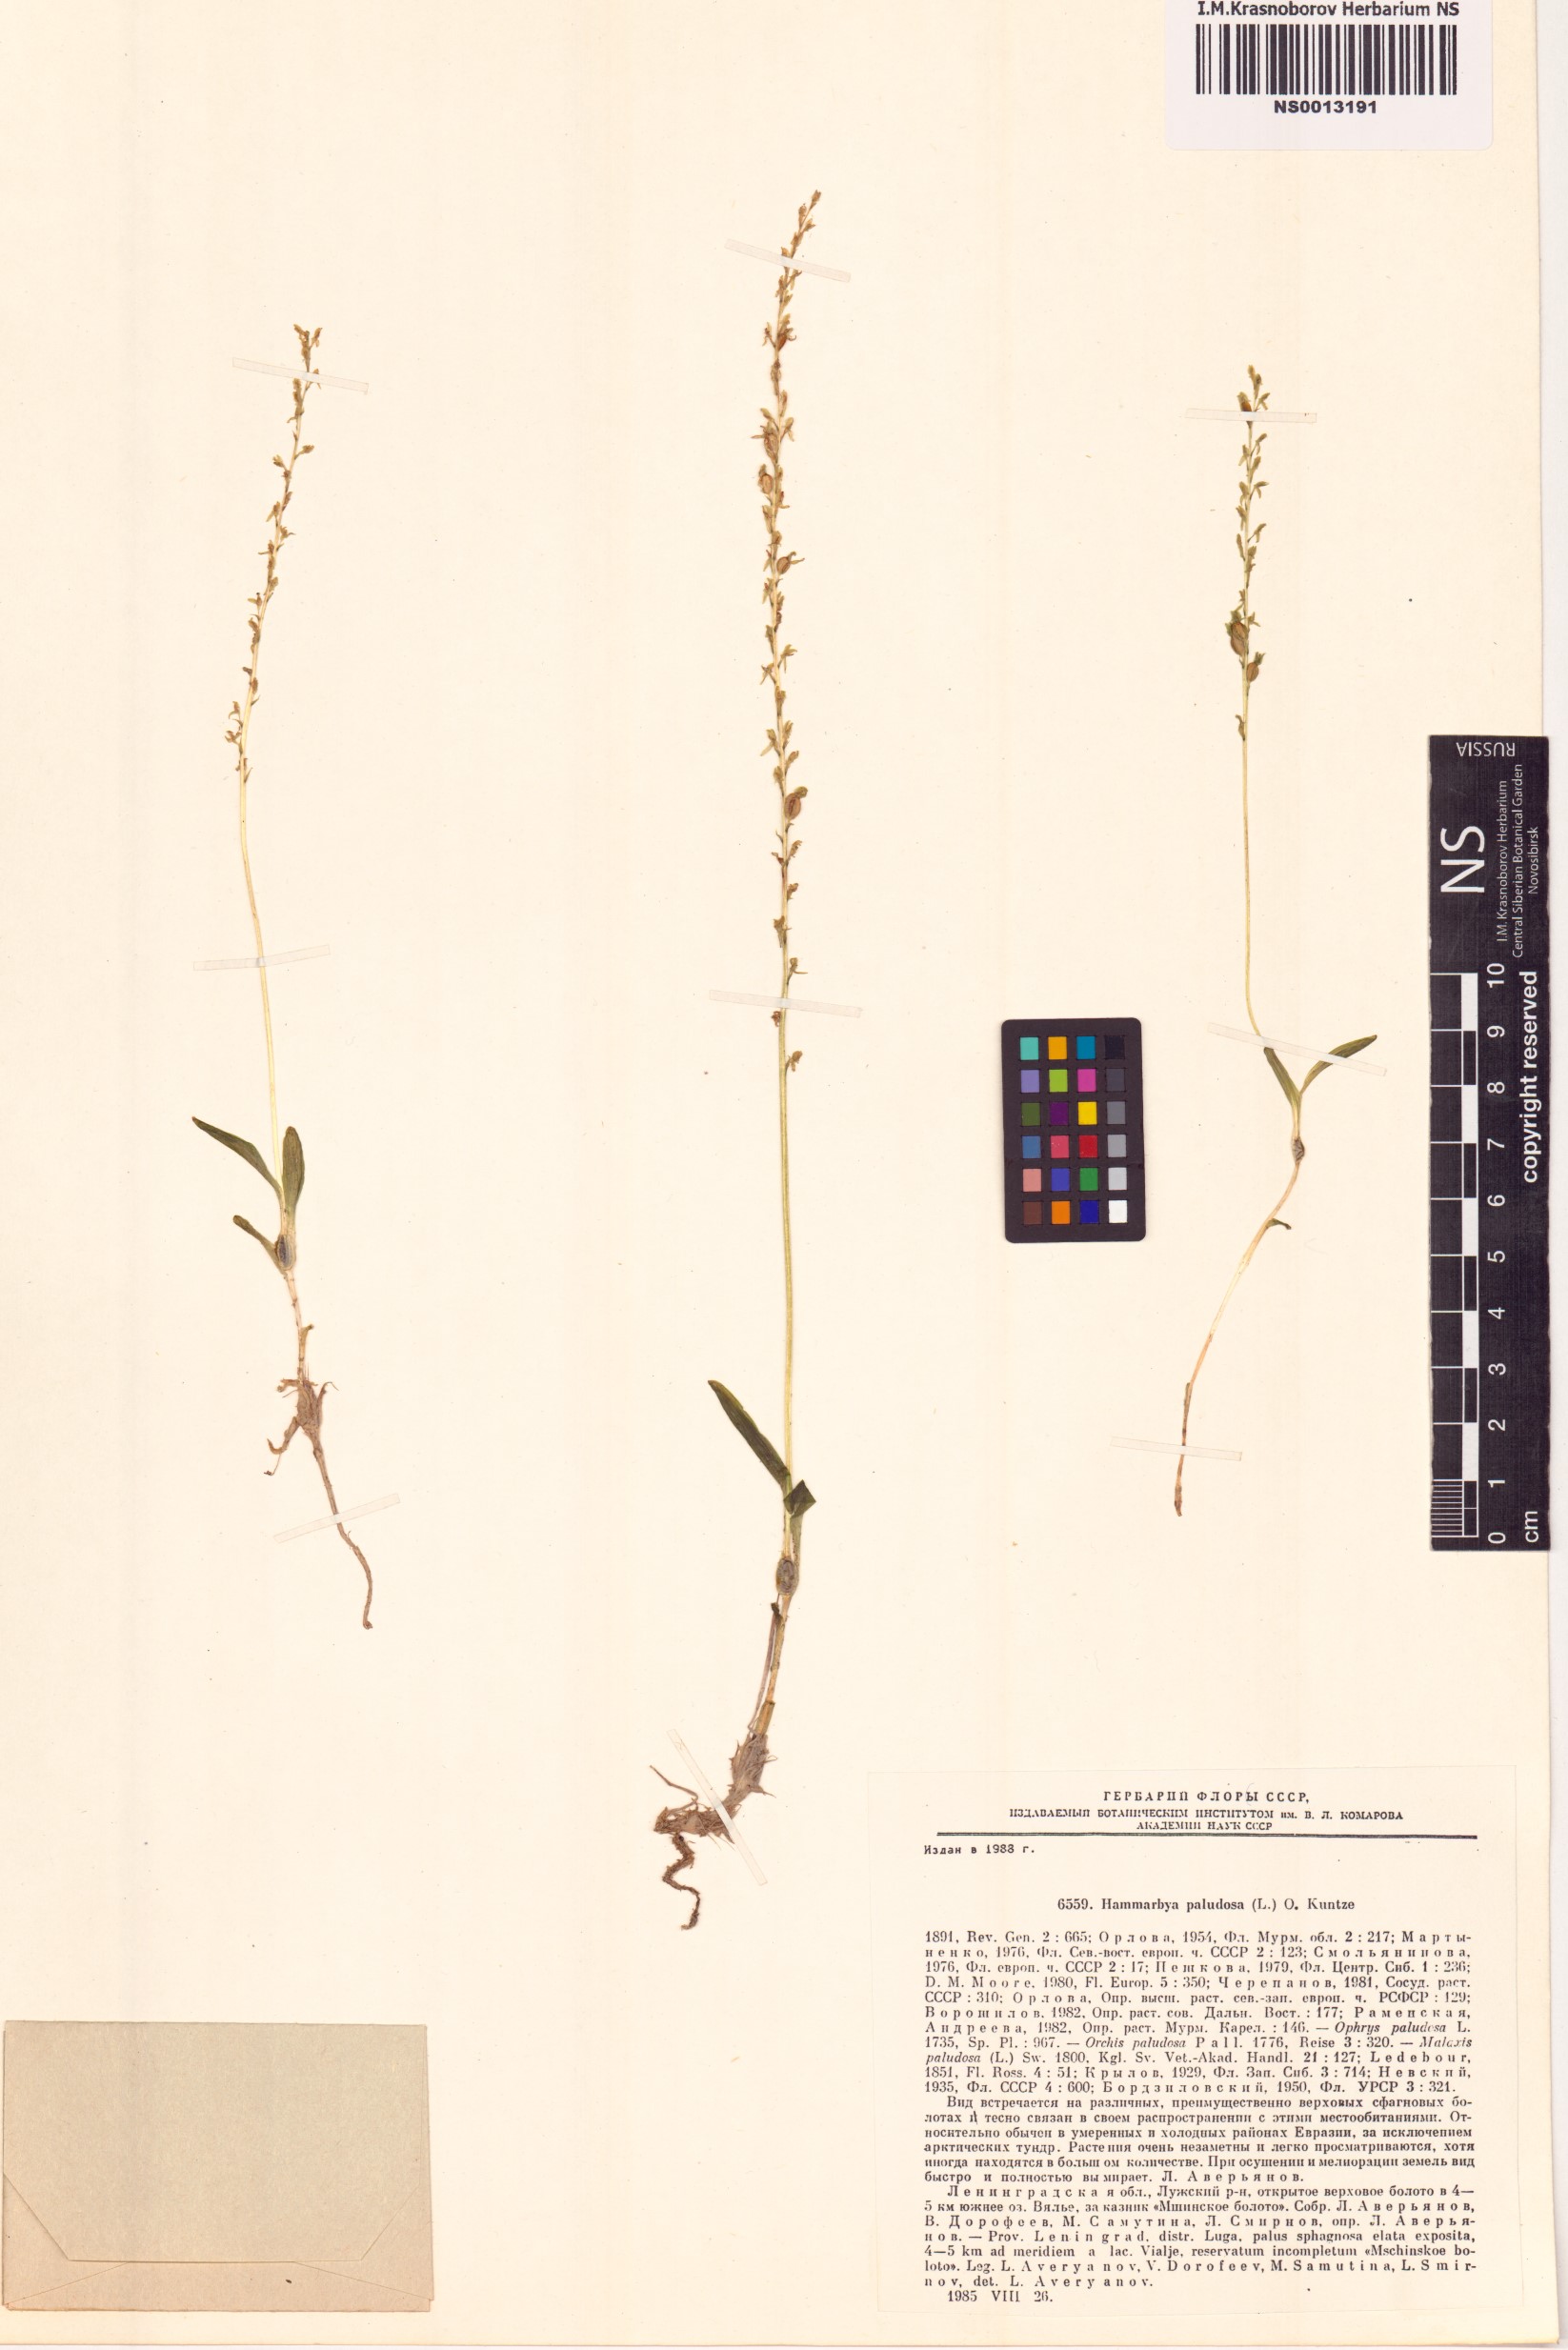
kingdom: Plantae
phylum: Tracheophyta
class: Liliopsida
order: Asparagales
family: Orchidaceae
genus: Hammarbya
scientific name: Hammarbya paludosa
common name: Bog orchid
